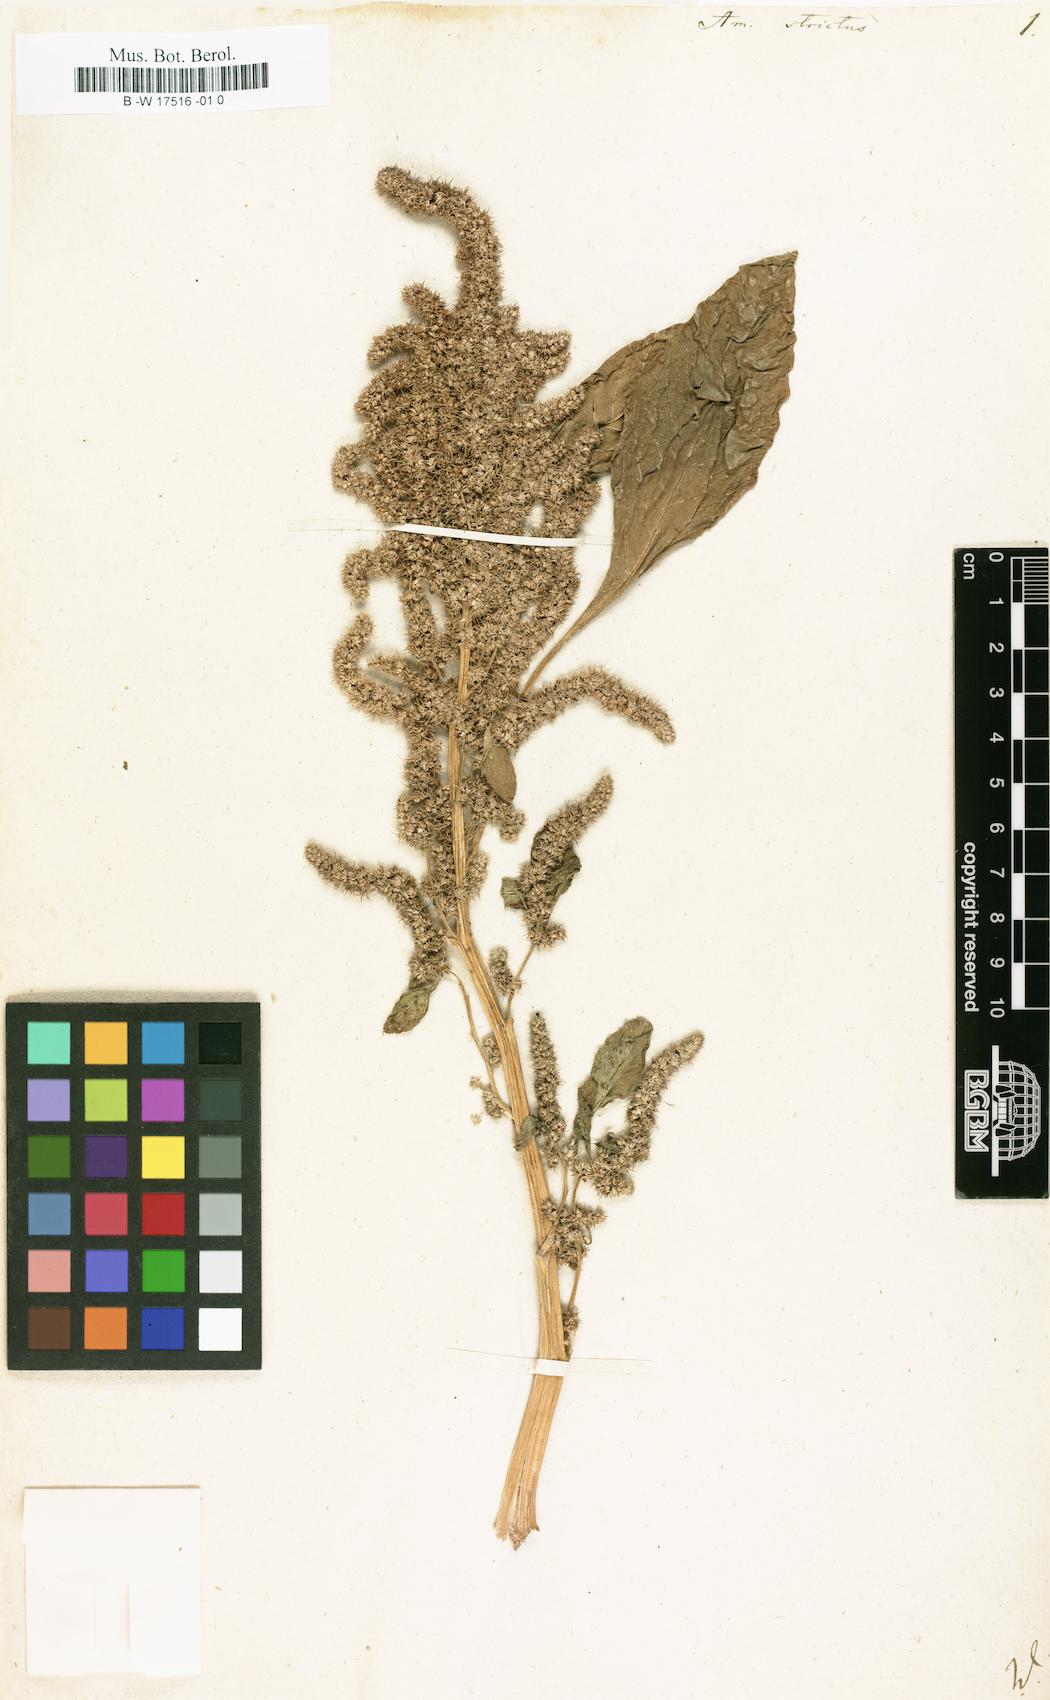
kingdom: Plantae
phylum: Tracheophyta
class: Magnoliopsida
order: Caryophyllales
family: Amaranthaceae
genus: Amaranthus
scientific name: Amaranthus cruentus
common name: Purple amaranth
